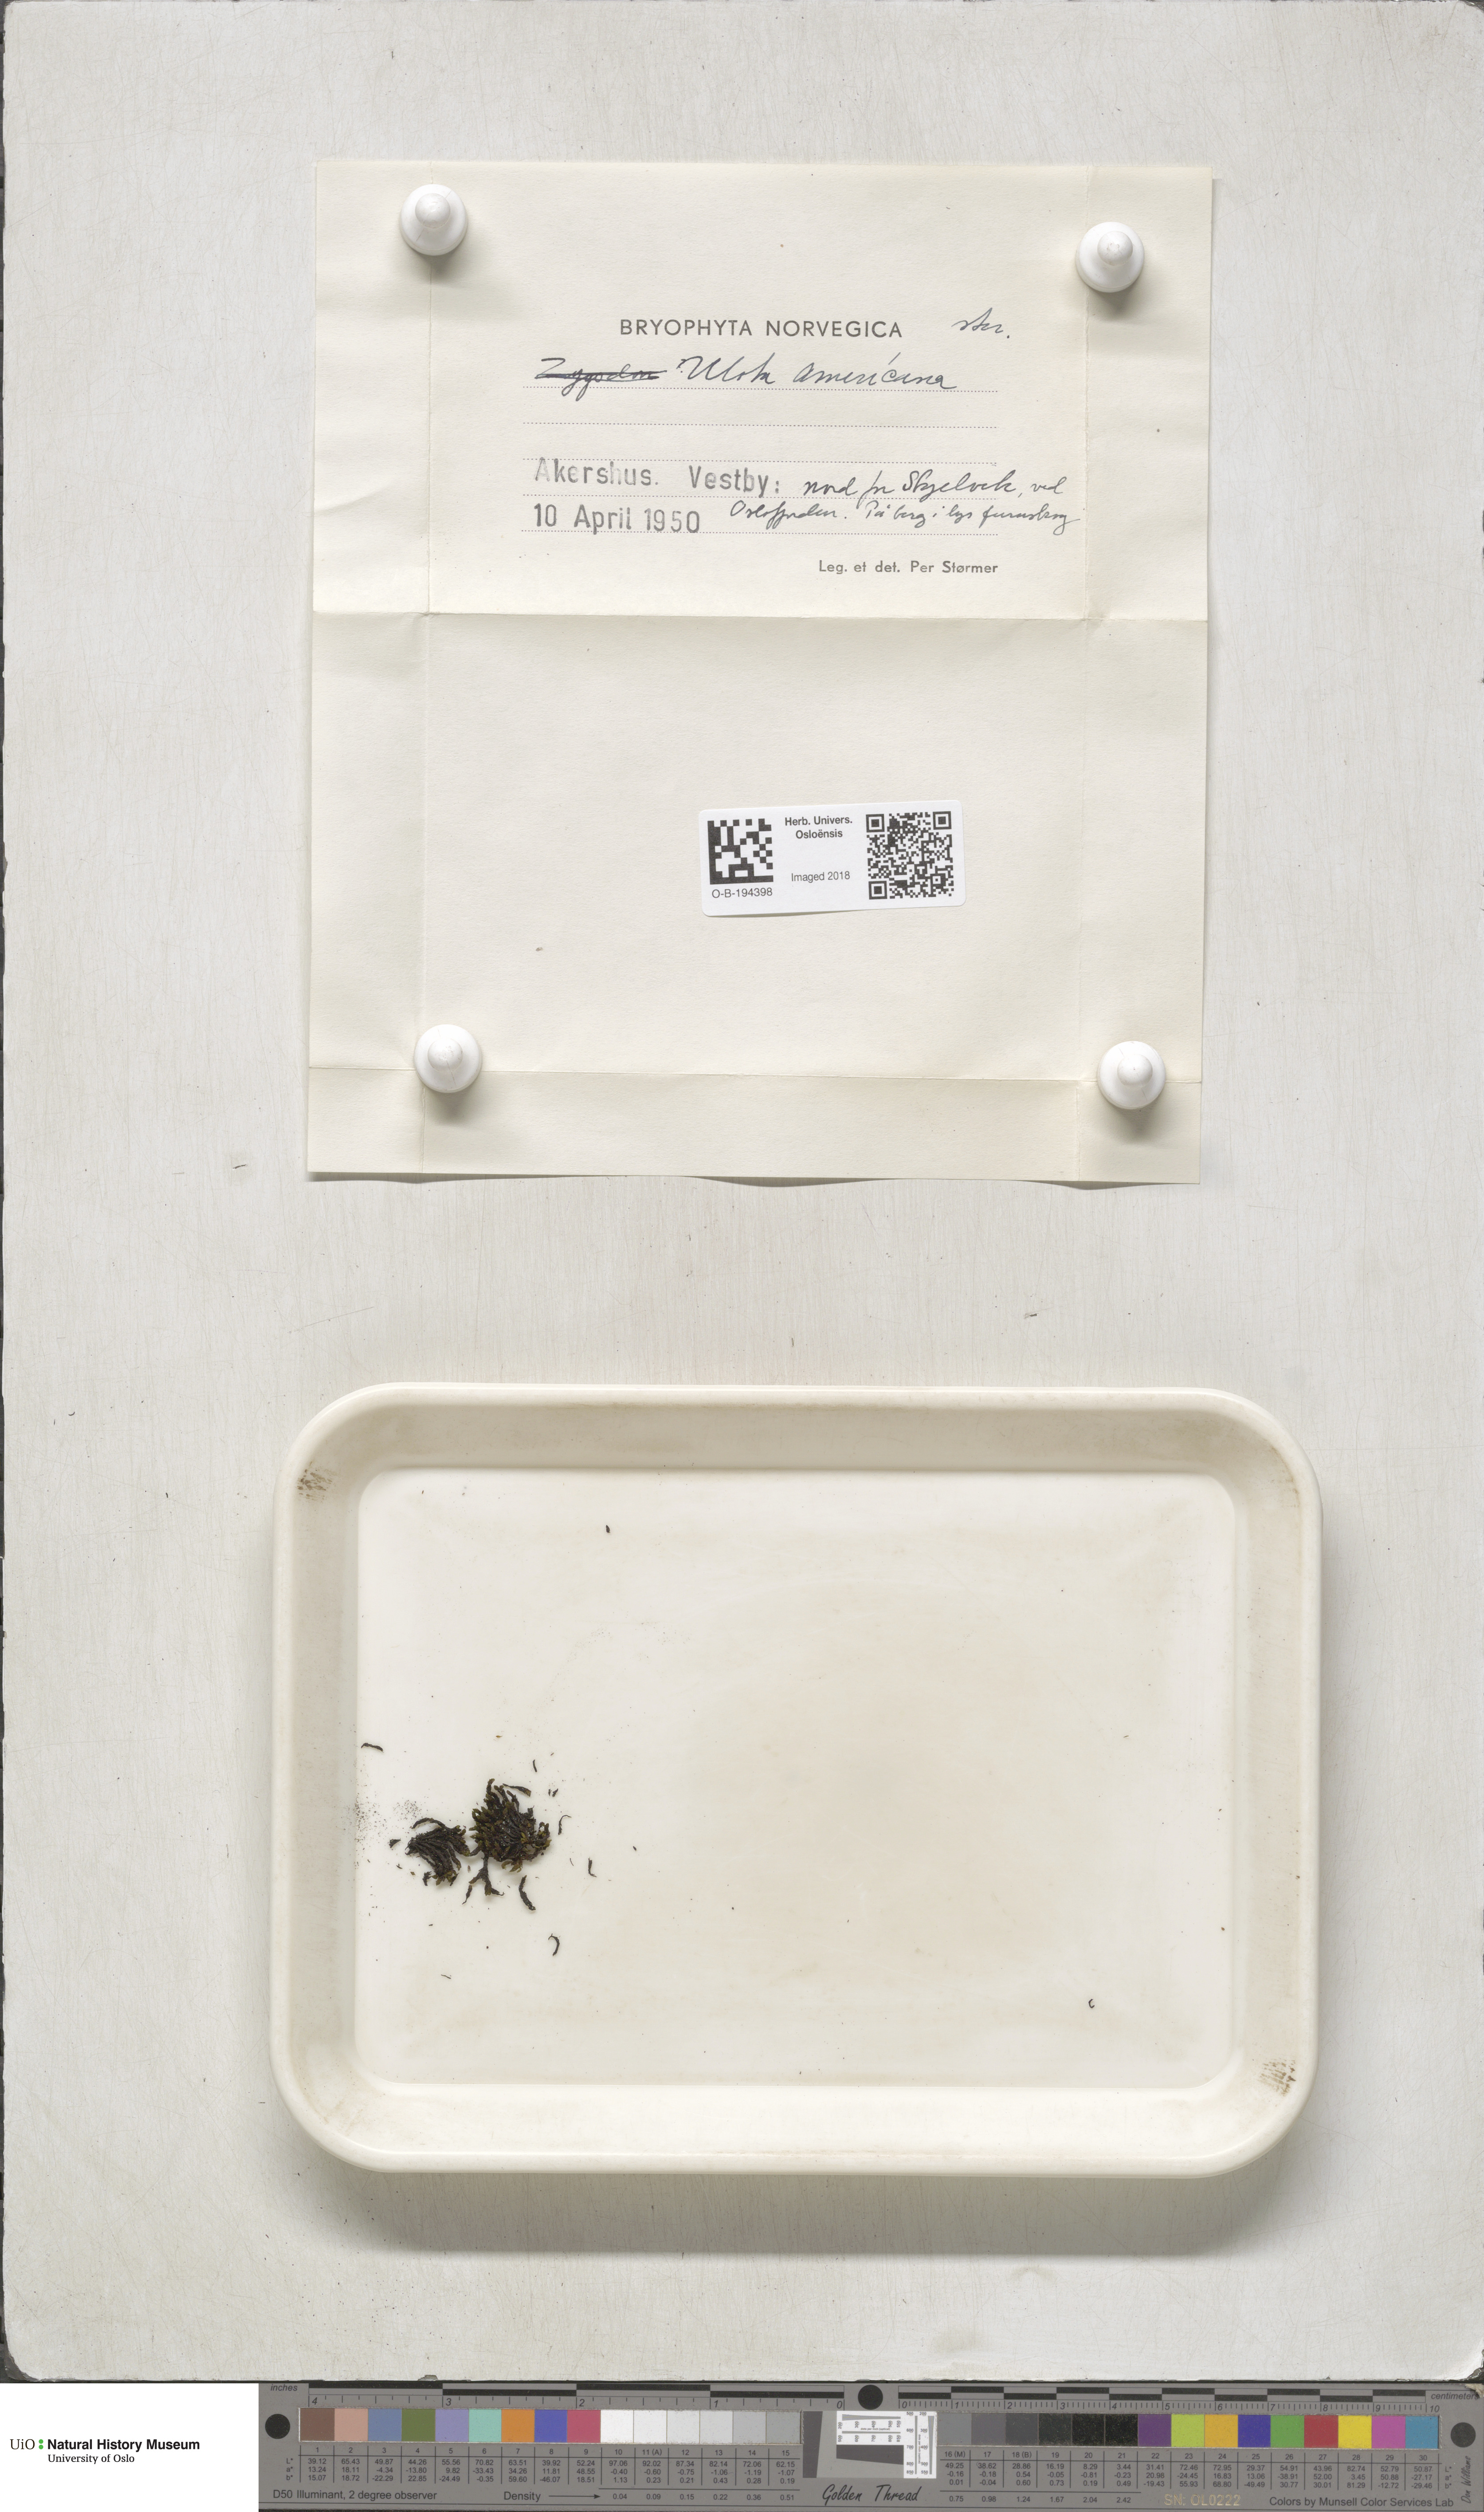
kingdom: Plantae
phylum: Bryophyta
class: Bryopsida
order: Orthotrichales
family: Orthotrichaceae
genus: Ulota
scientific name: Ulota hutchinsiae
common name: Hutchins' pincushion
